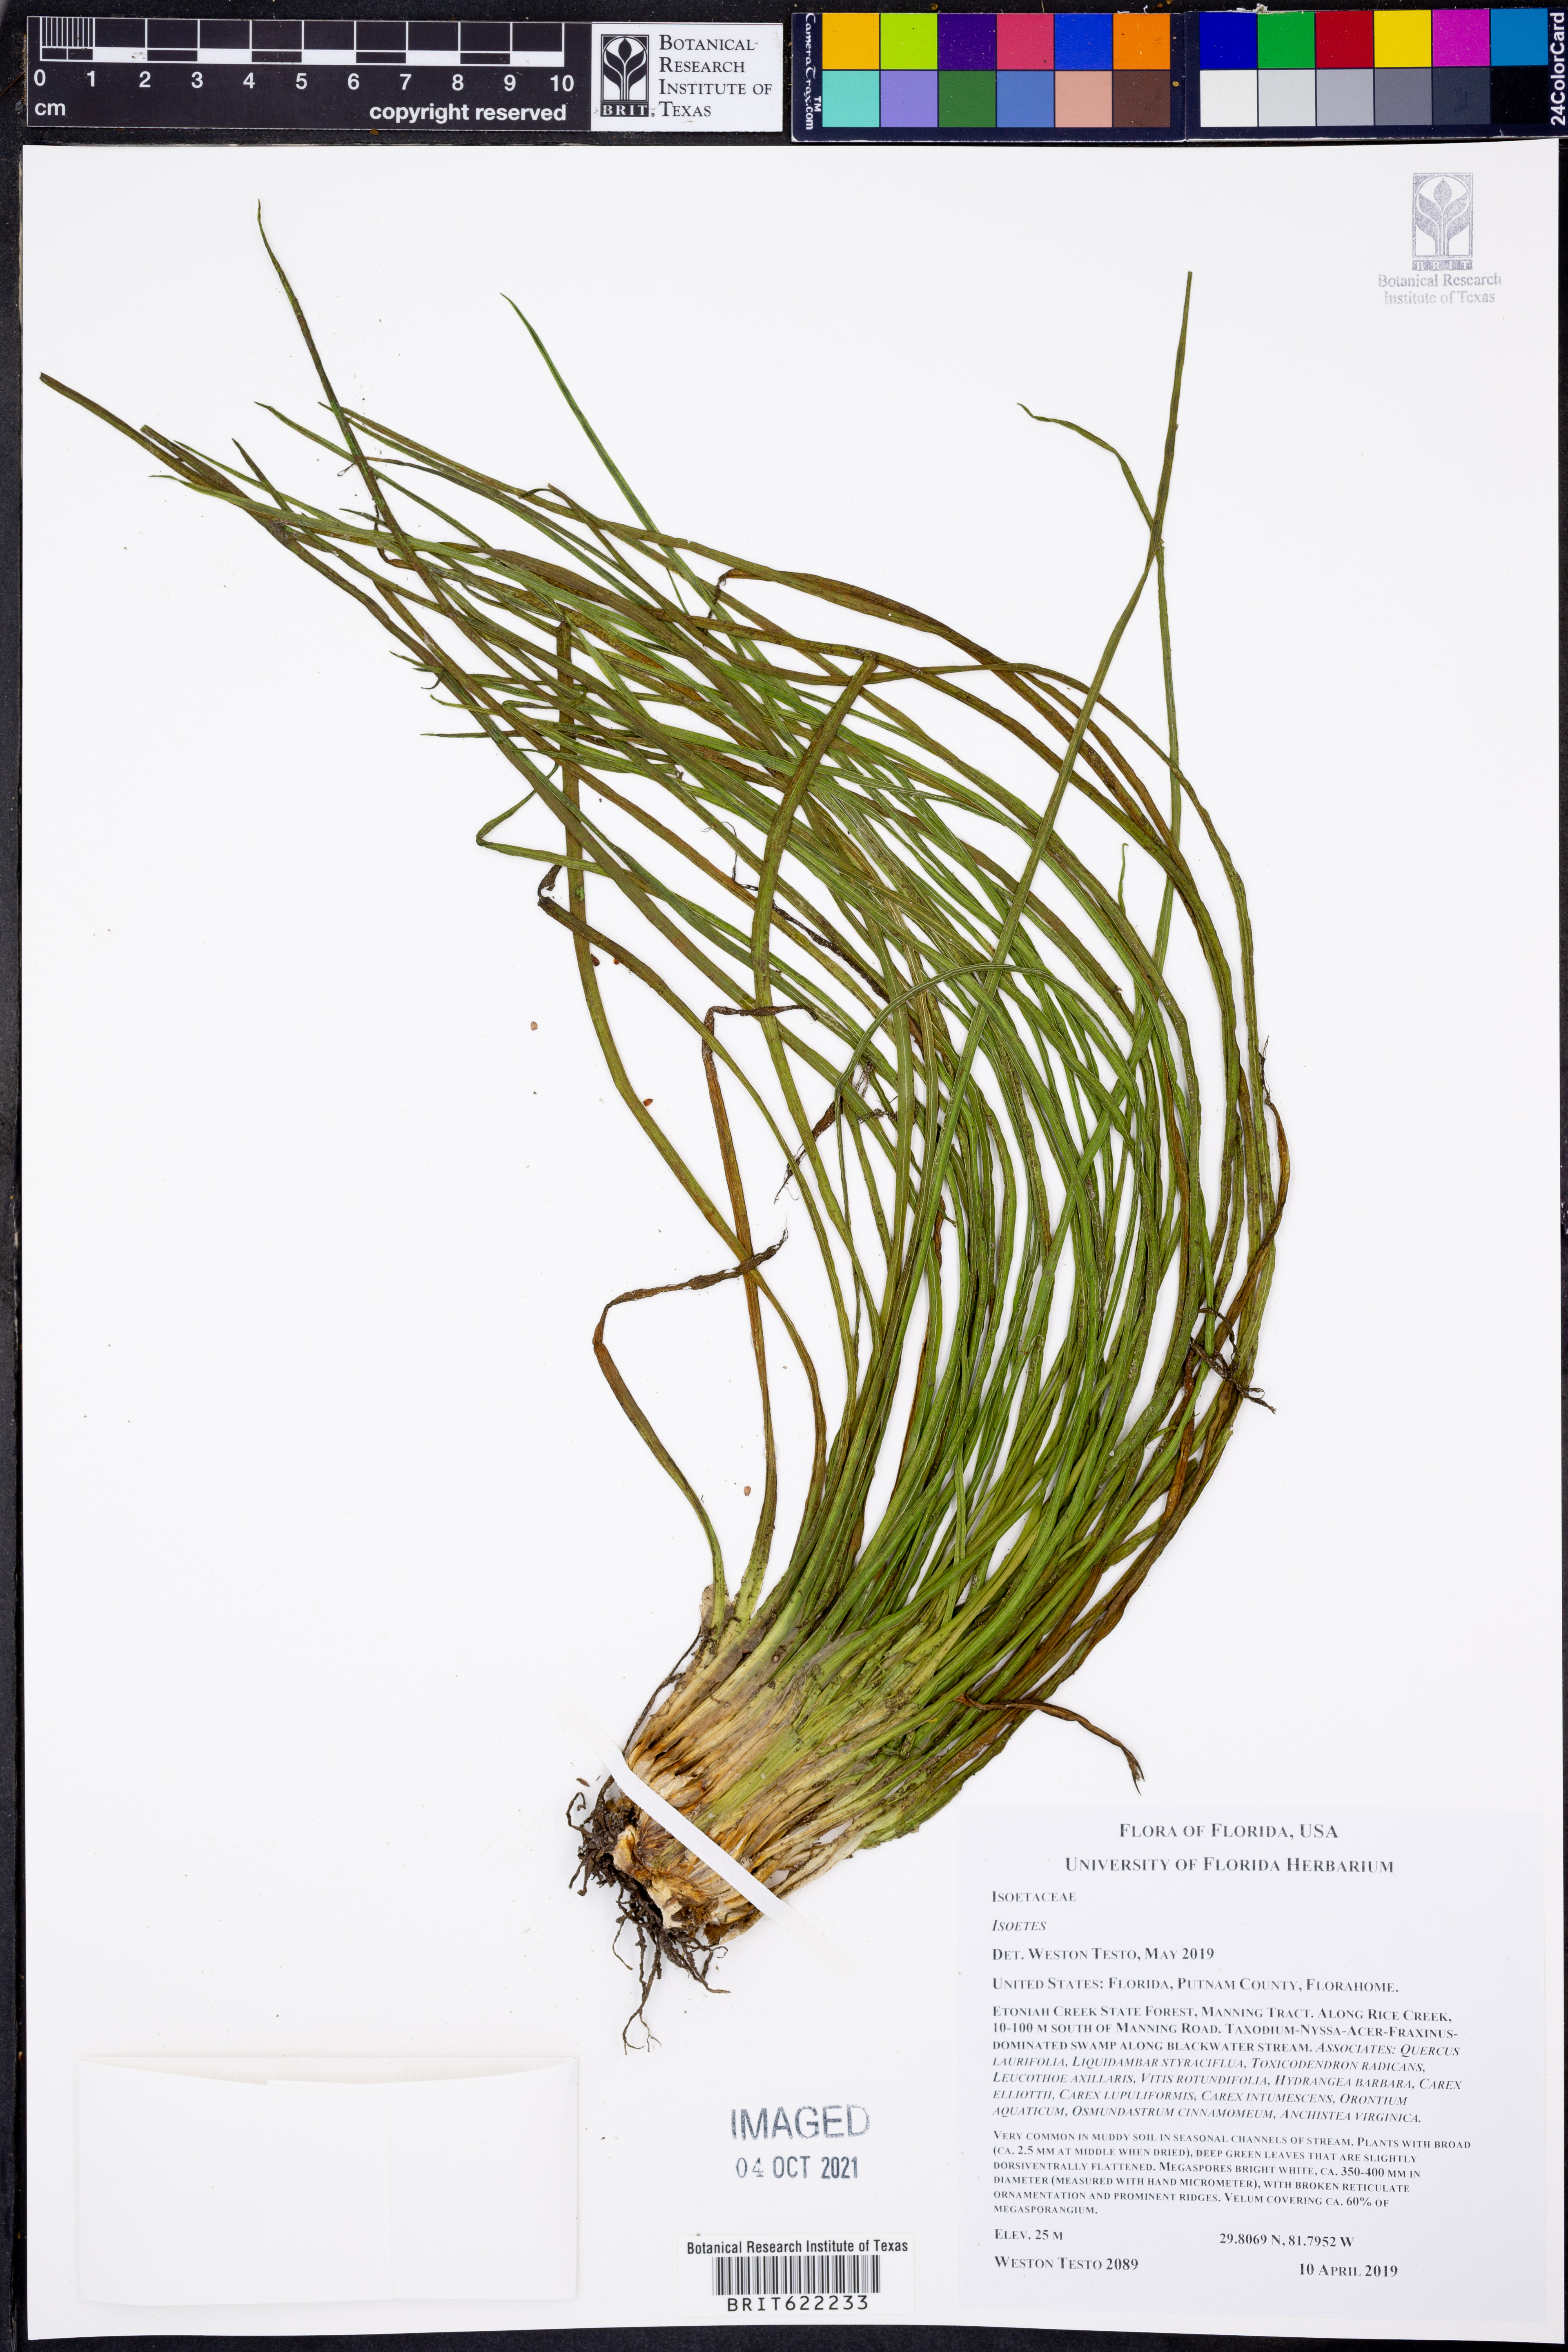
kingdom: Plantae
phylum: Tracheophyta
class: Lycopodiopsida
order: Isoetales
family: Isoetaceae
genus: Isoetes
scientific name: Isoetes
